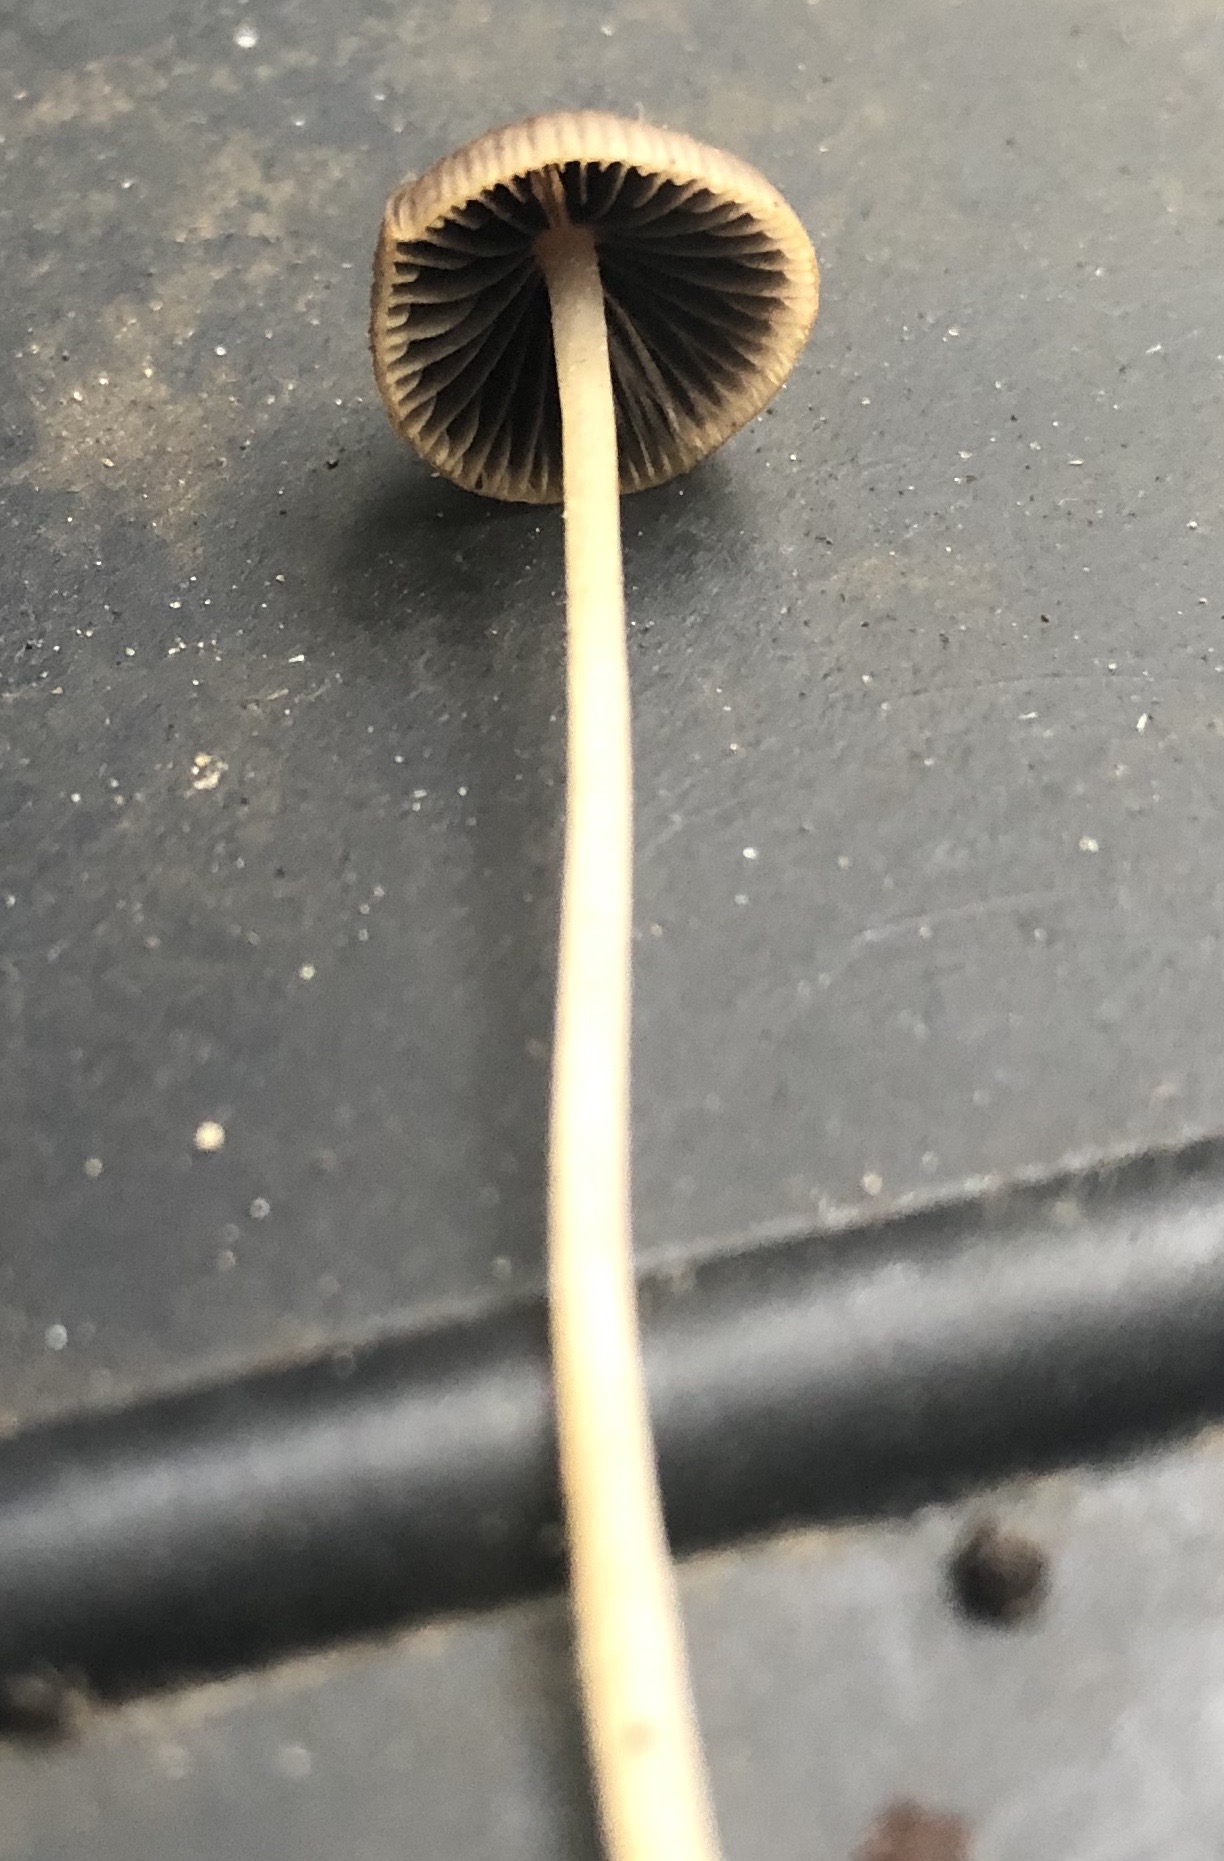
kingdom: Fungi
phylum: Basidiomycota
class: Agaricomycetes
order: Agaricales
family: Psathyrellaceae
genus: Psathyrella
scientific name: Psathyrella
